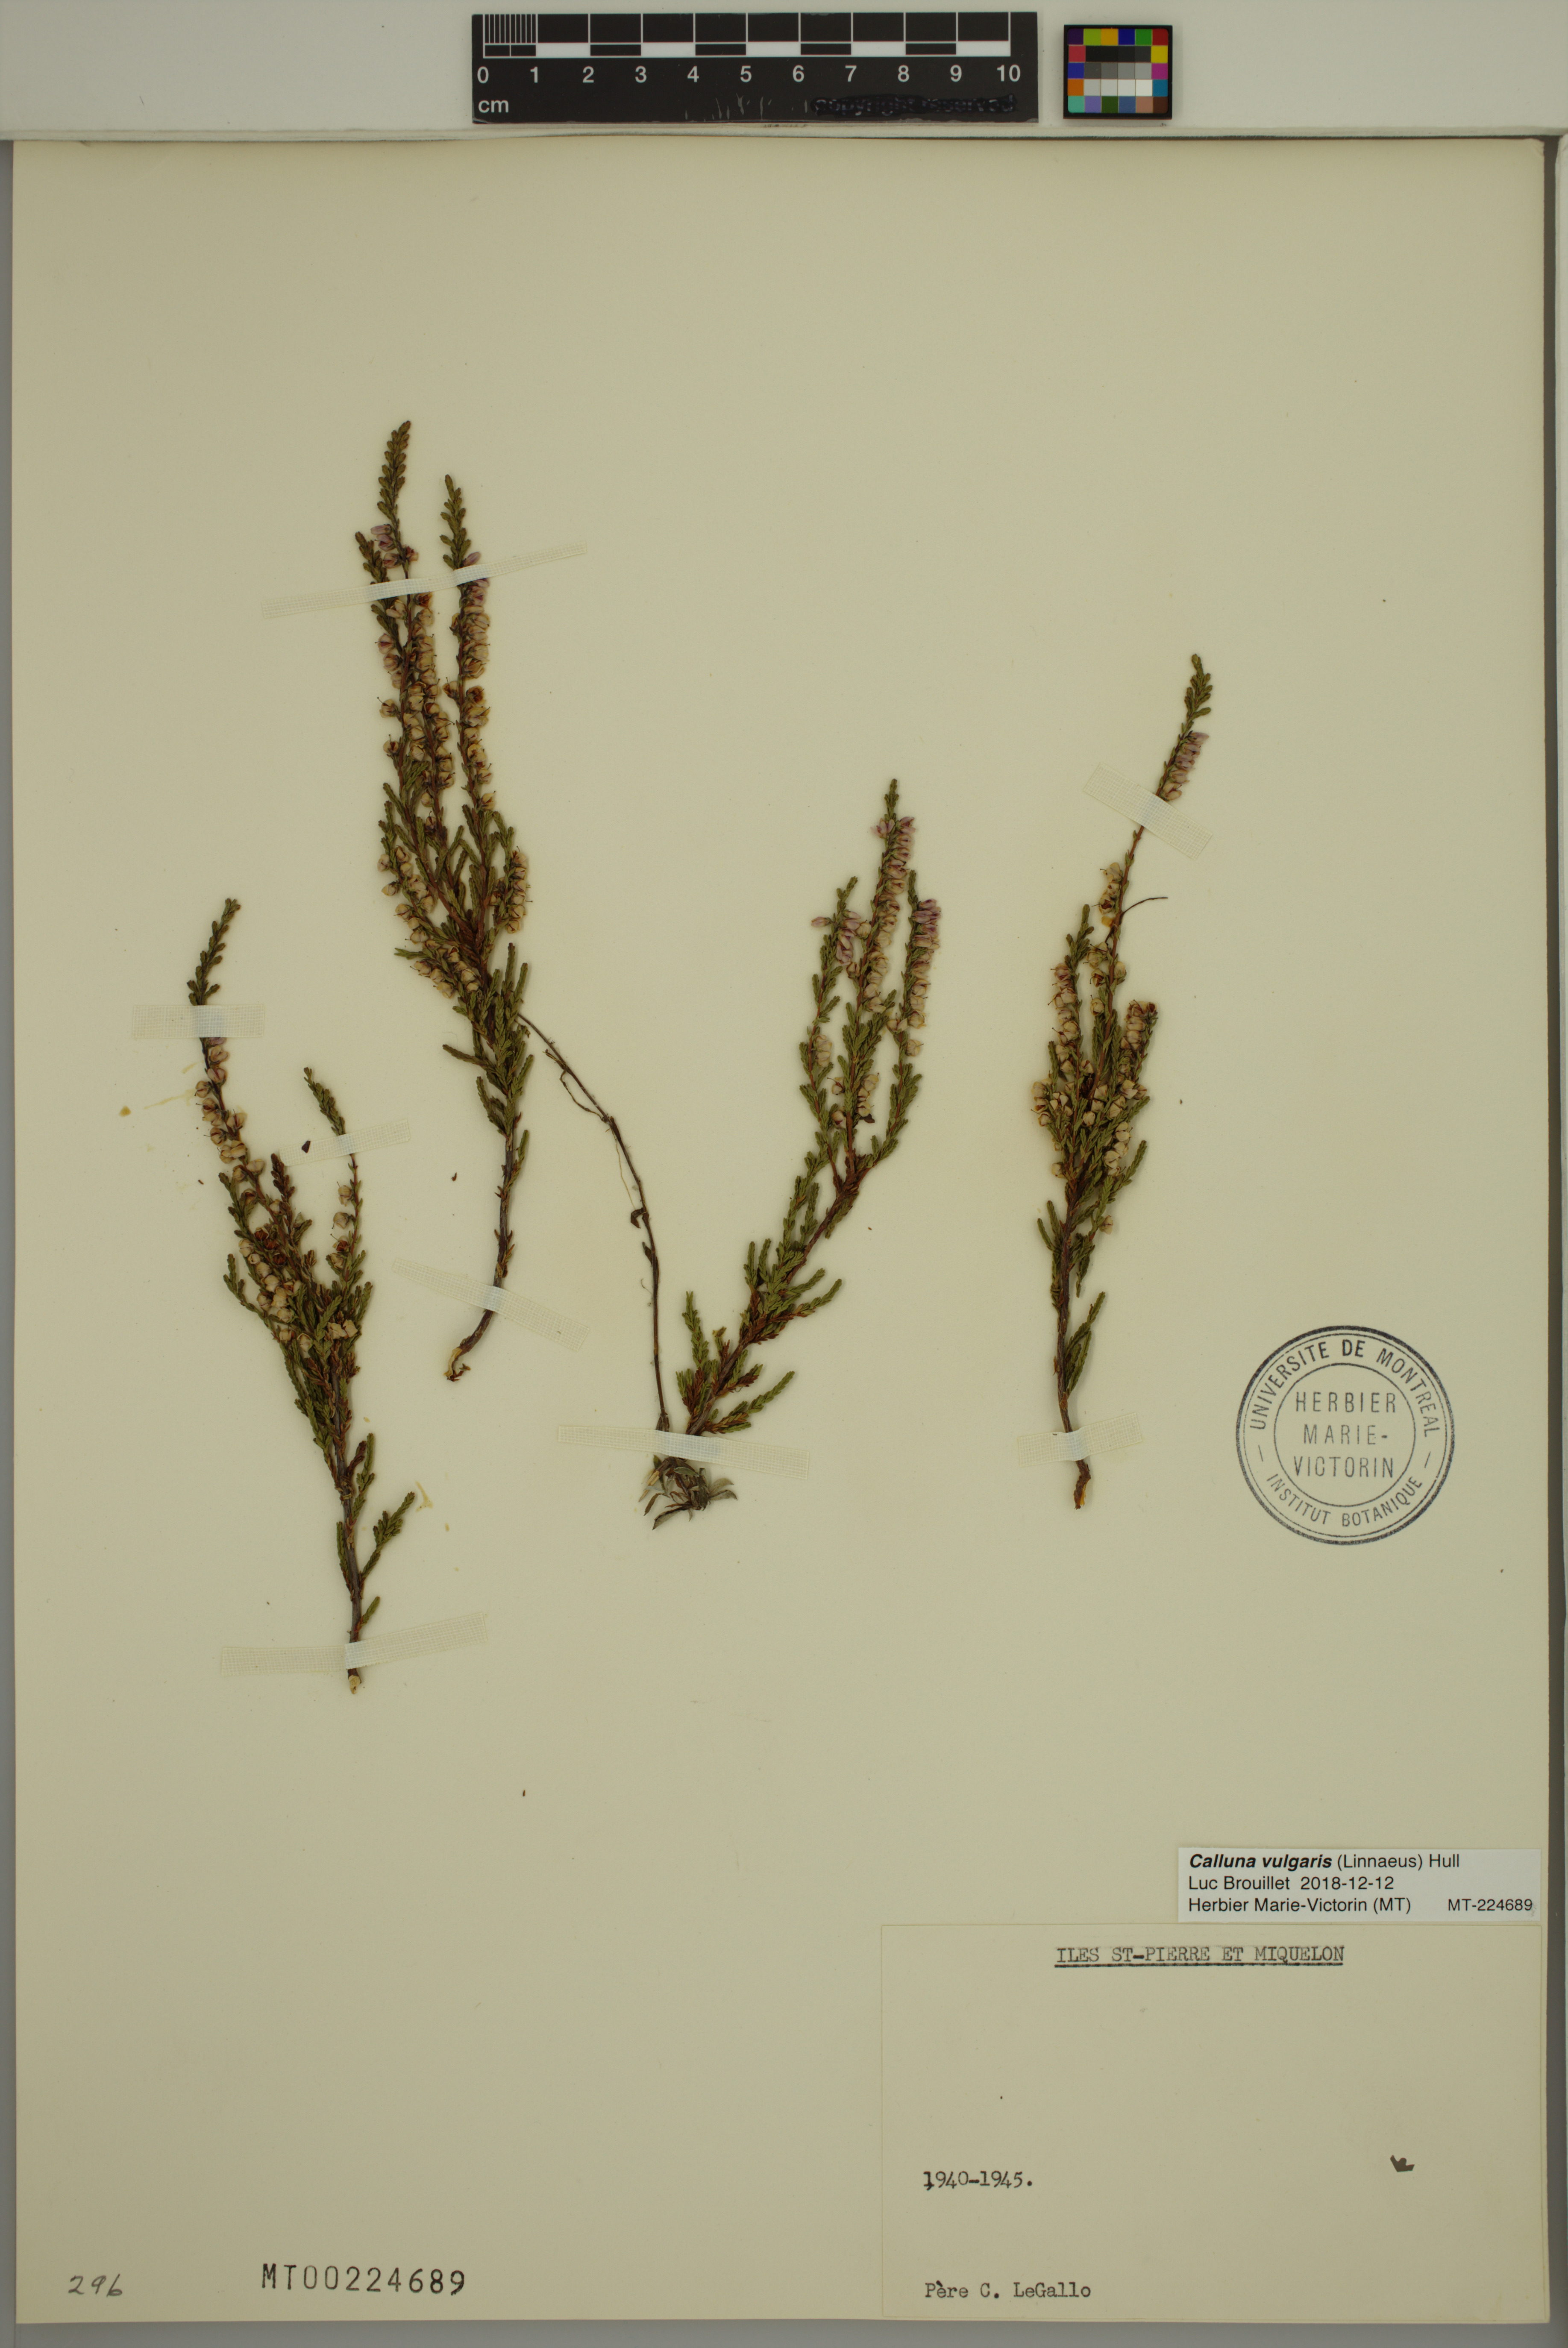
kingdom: Plantae
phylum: Tracheophyta
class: Magnoliopsida
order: Ericales
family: Ericaceae
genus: Calluna
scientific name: Calluna vulgaris
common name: Heather
